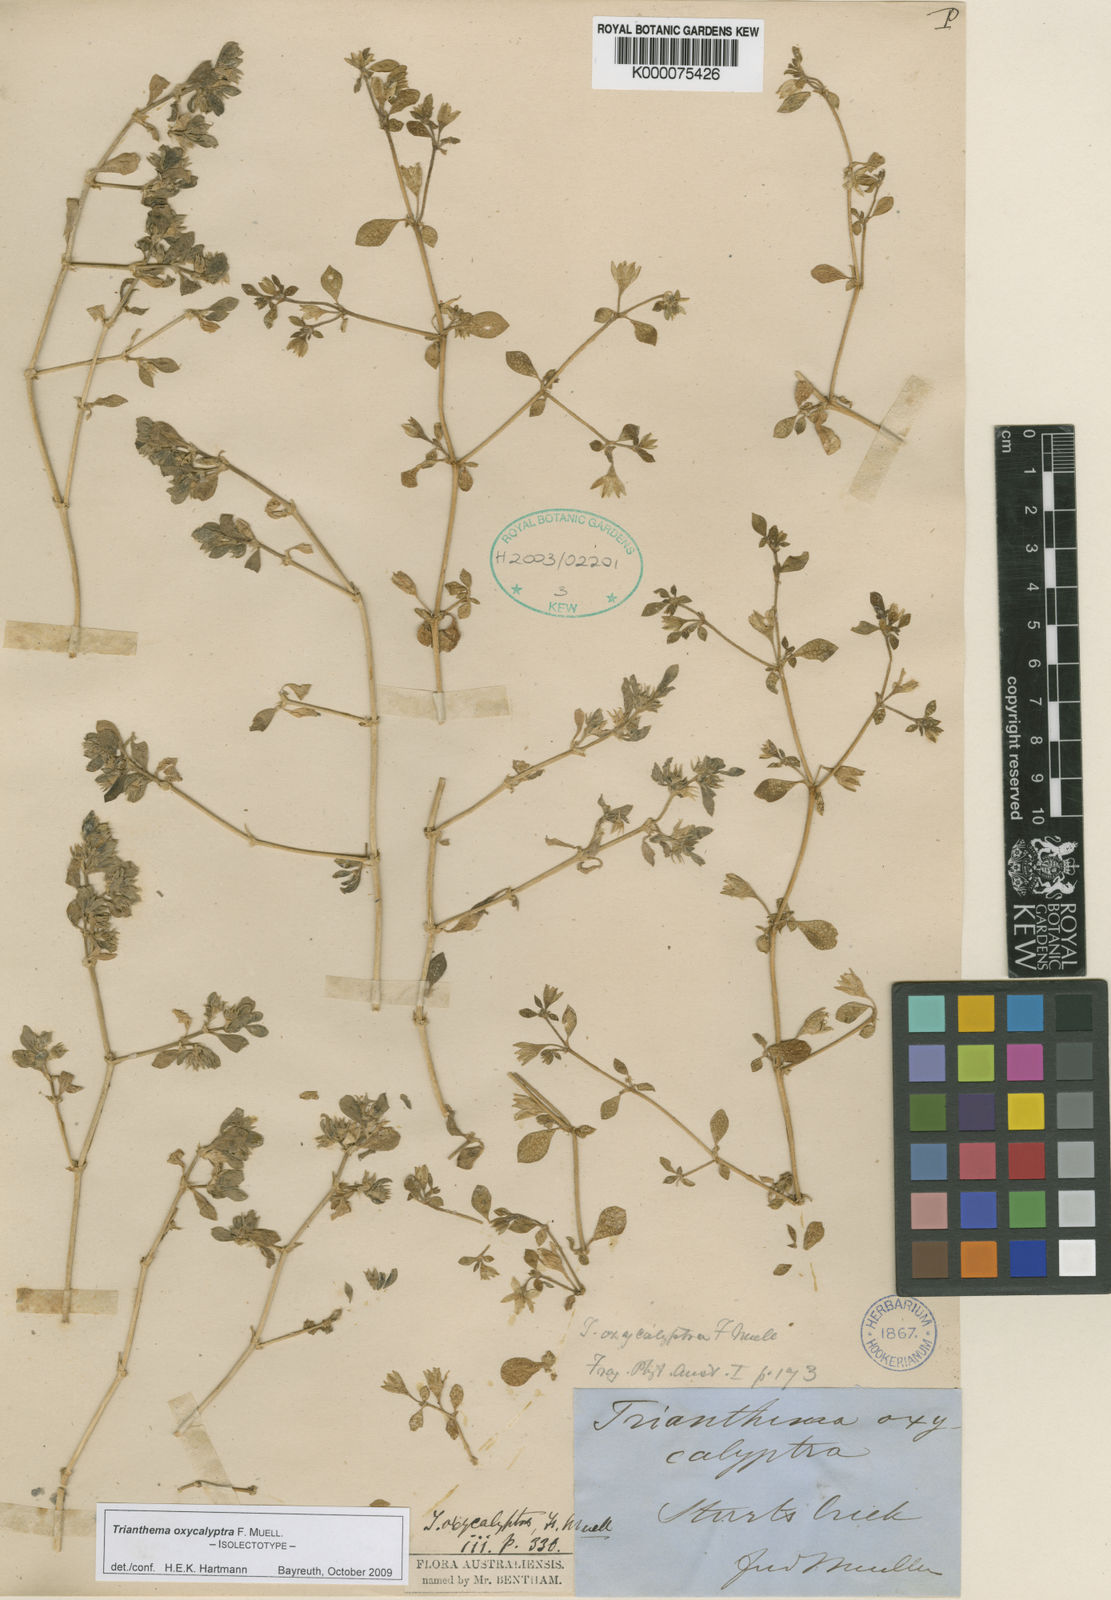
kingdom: Plantae
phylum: Tracheophyta
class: Magnoliopsida
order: Caryophyllales
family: Aizoaceae
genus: Trianthema
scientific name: Trianthema oxycalyptrum
